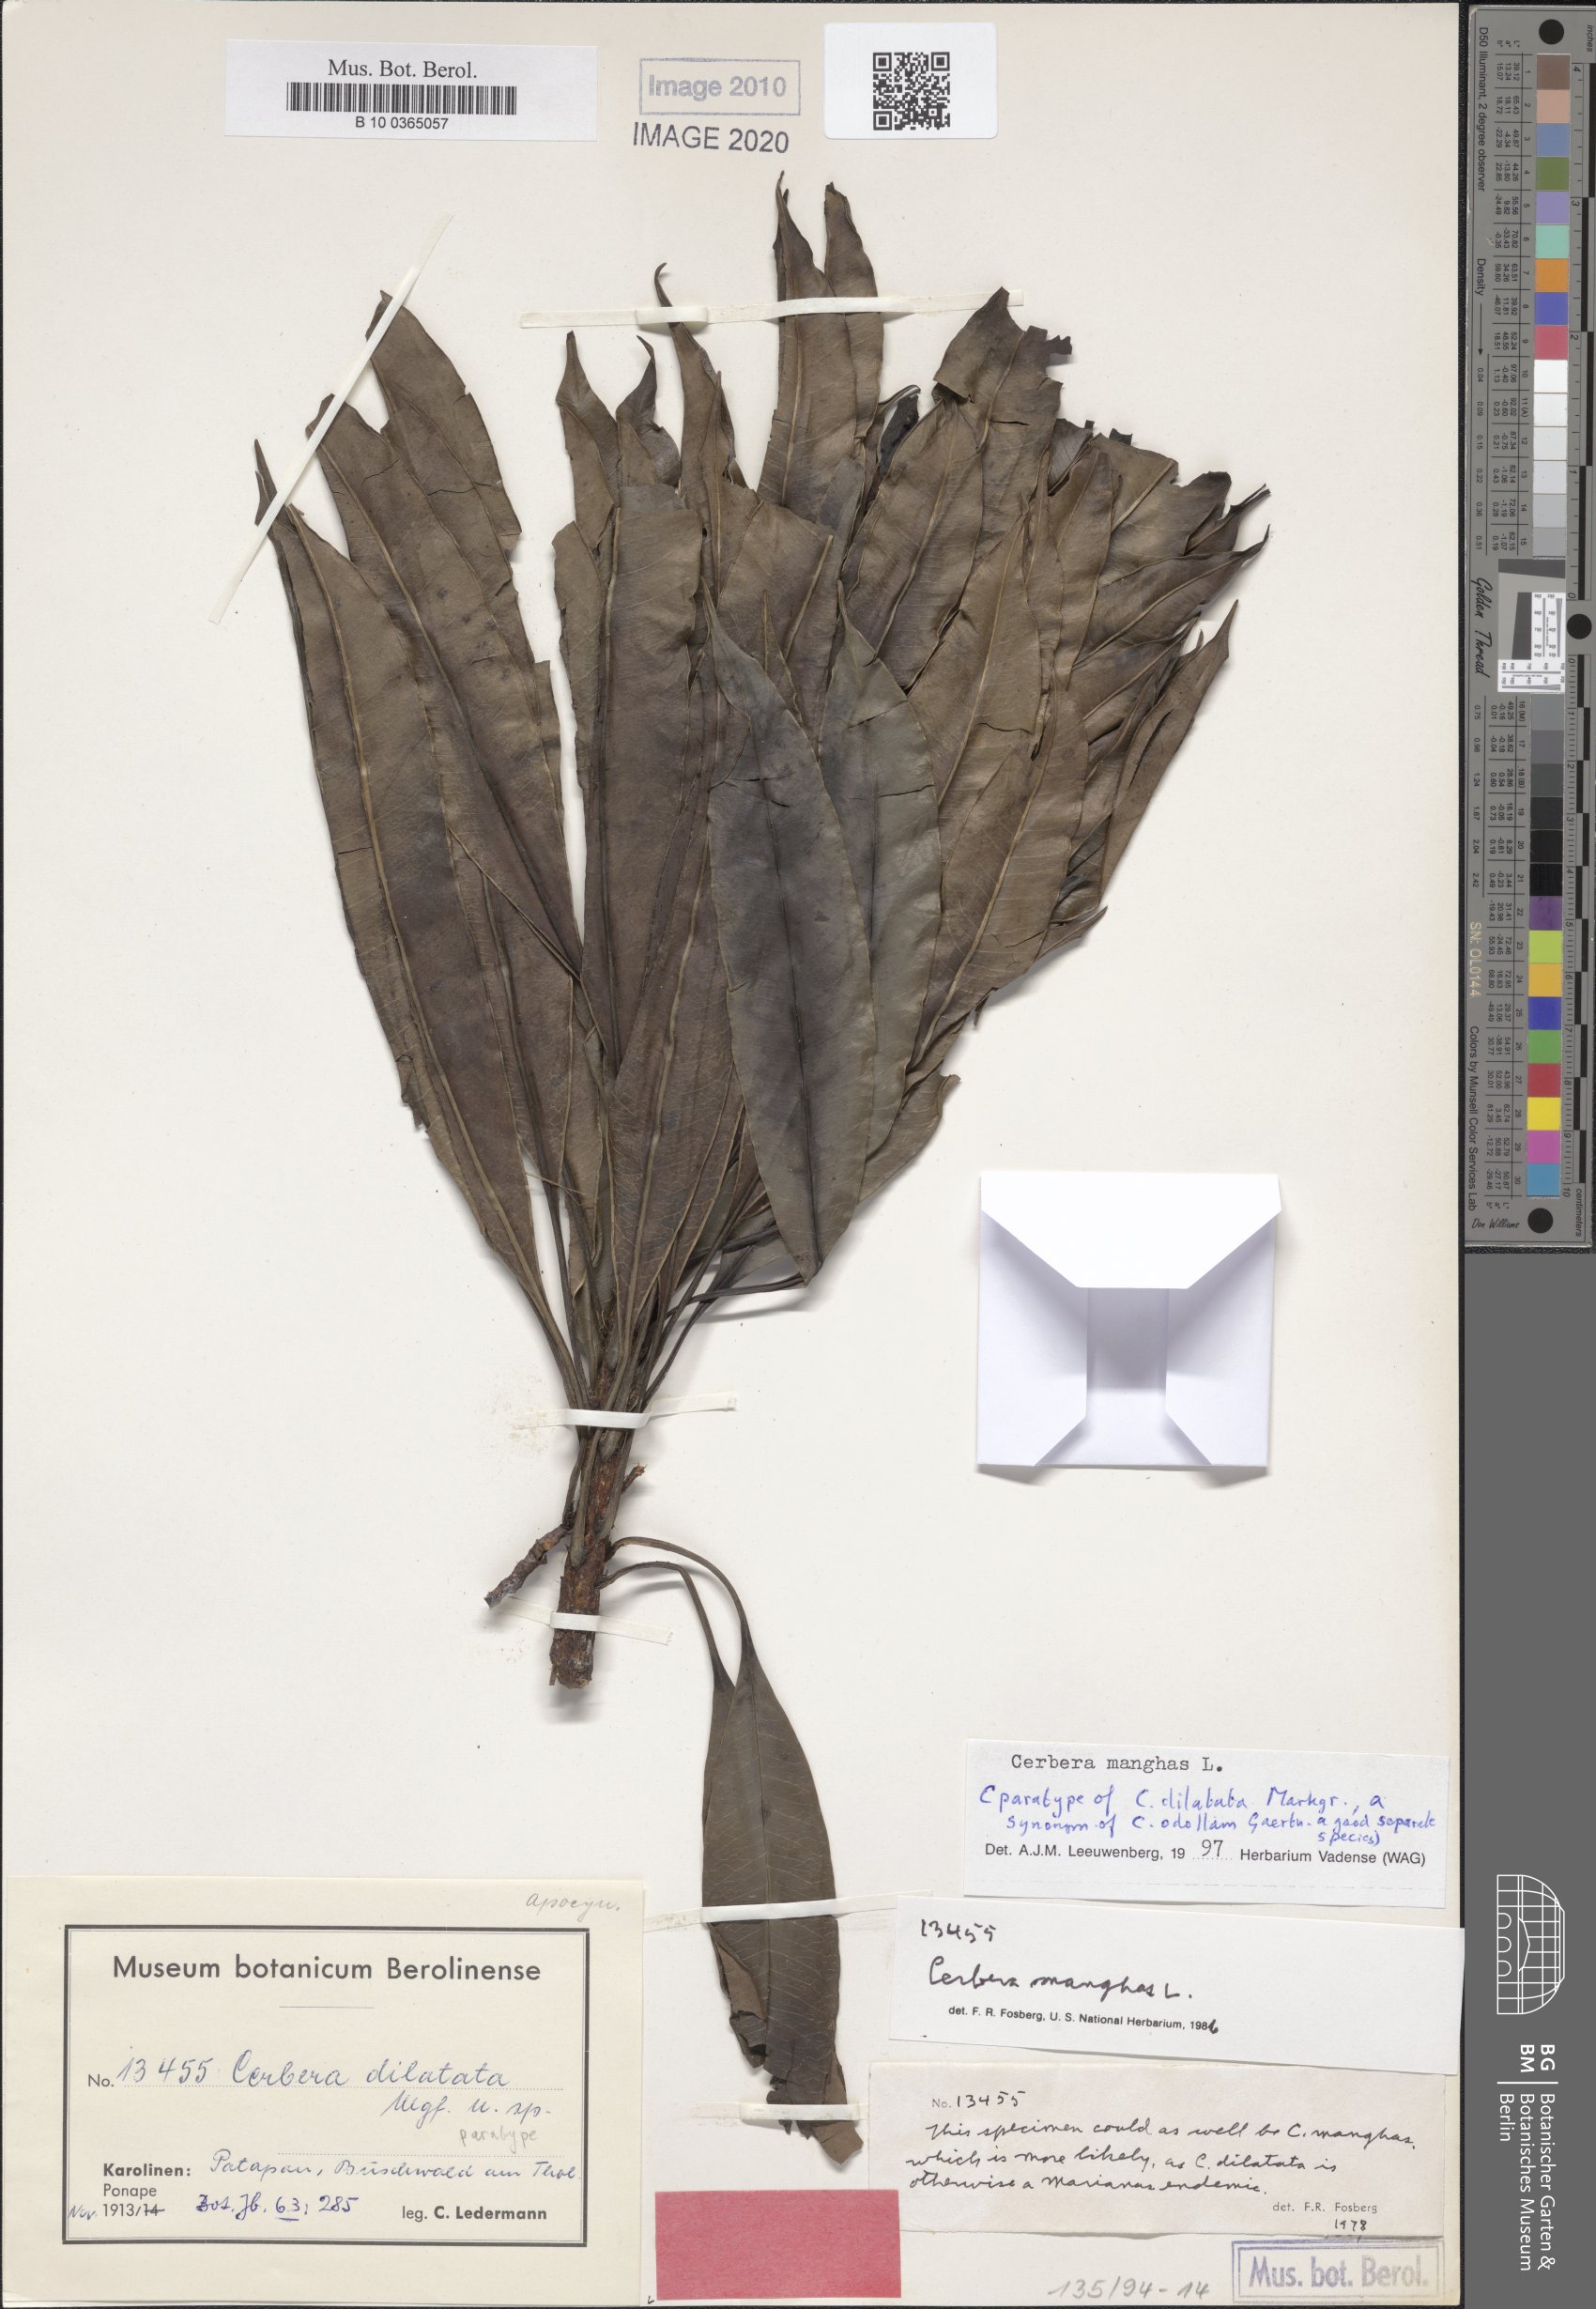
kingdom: Plantae
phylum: Tracheophyta
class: Magnoliopsida
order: Gentianales
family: Apocynaceae
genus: Cerbera
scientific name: Cerbera odollam
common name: Pong-pong
